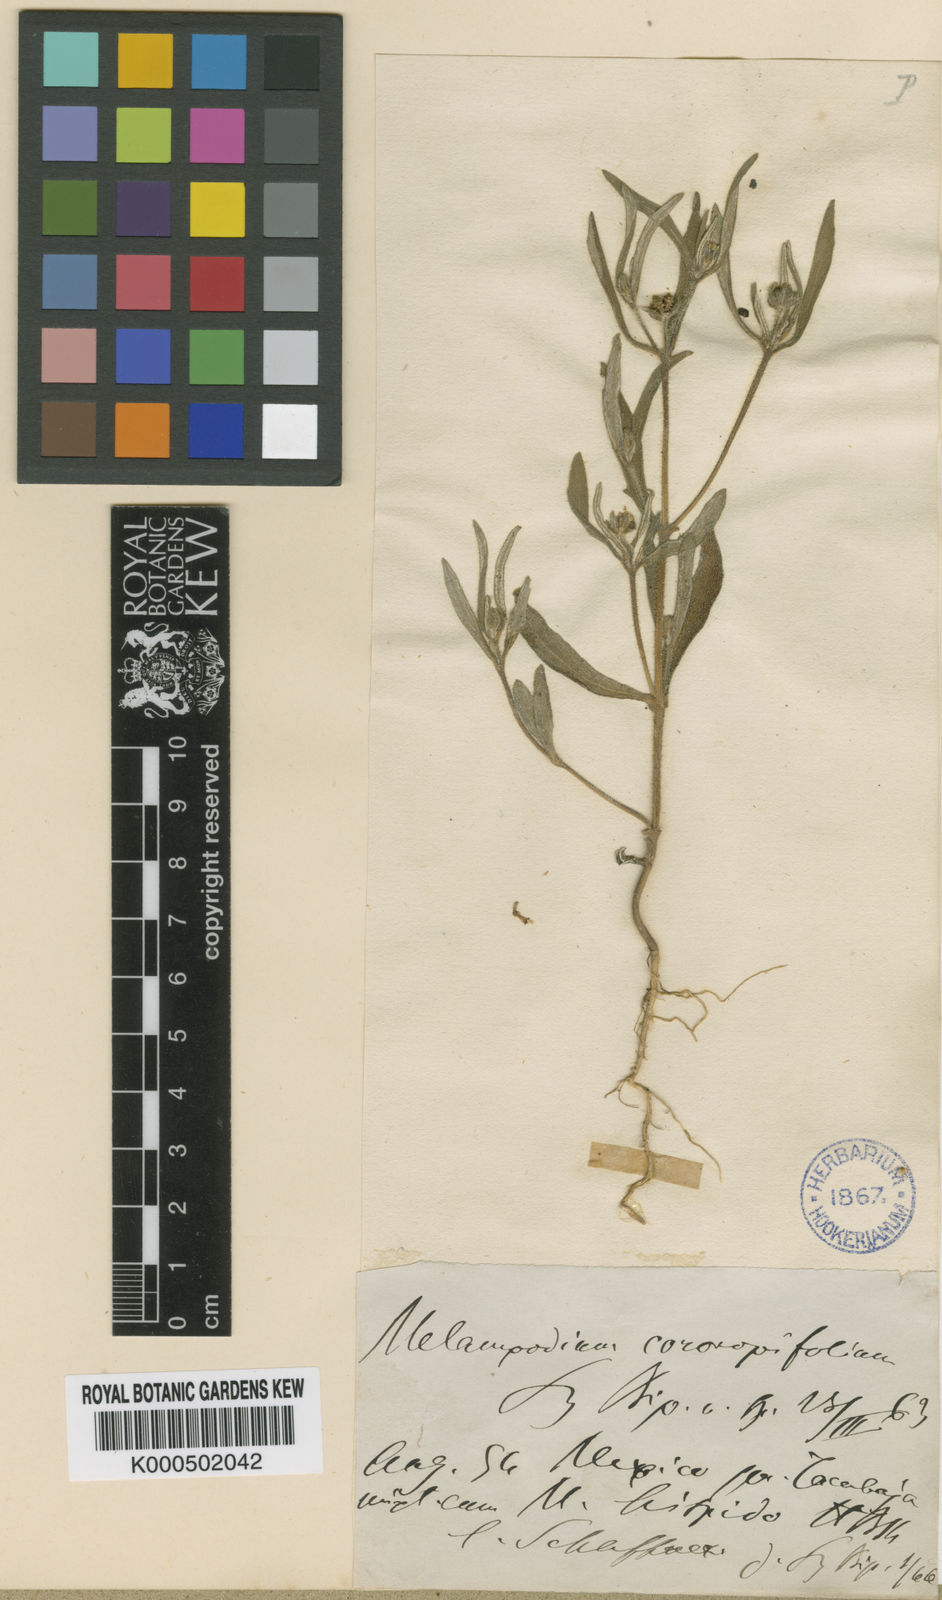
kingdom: Plantae
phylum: Tracheophyta
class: Magnoliopsida
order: Asterales
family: Asteraceae
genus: Melampodium
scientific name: Melampodium strigosum
